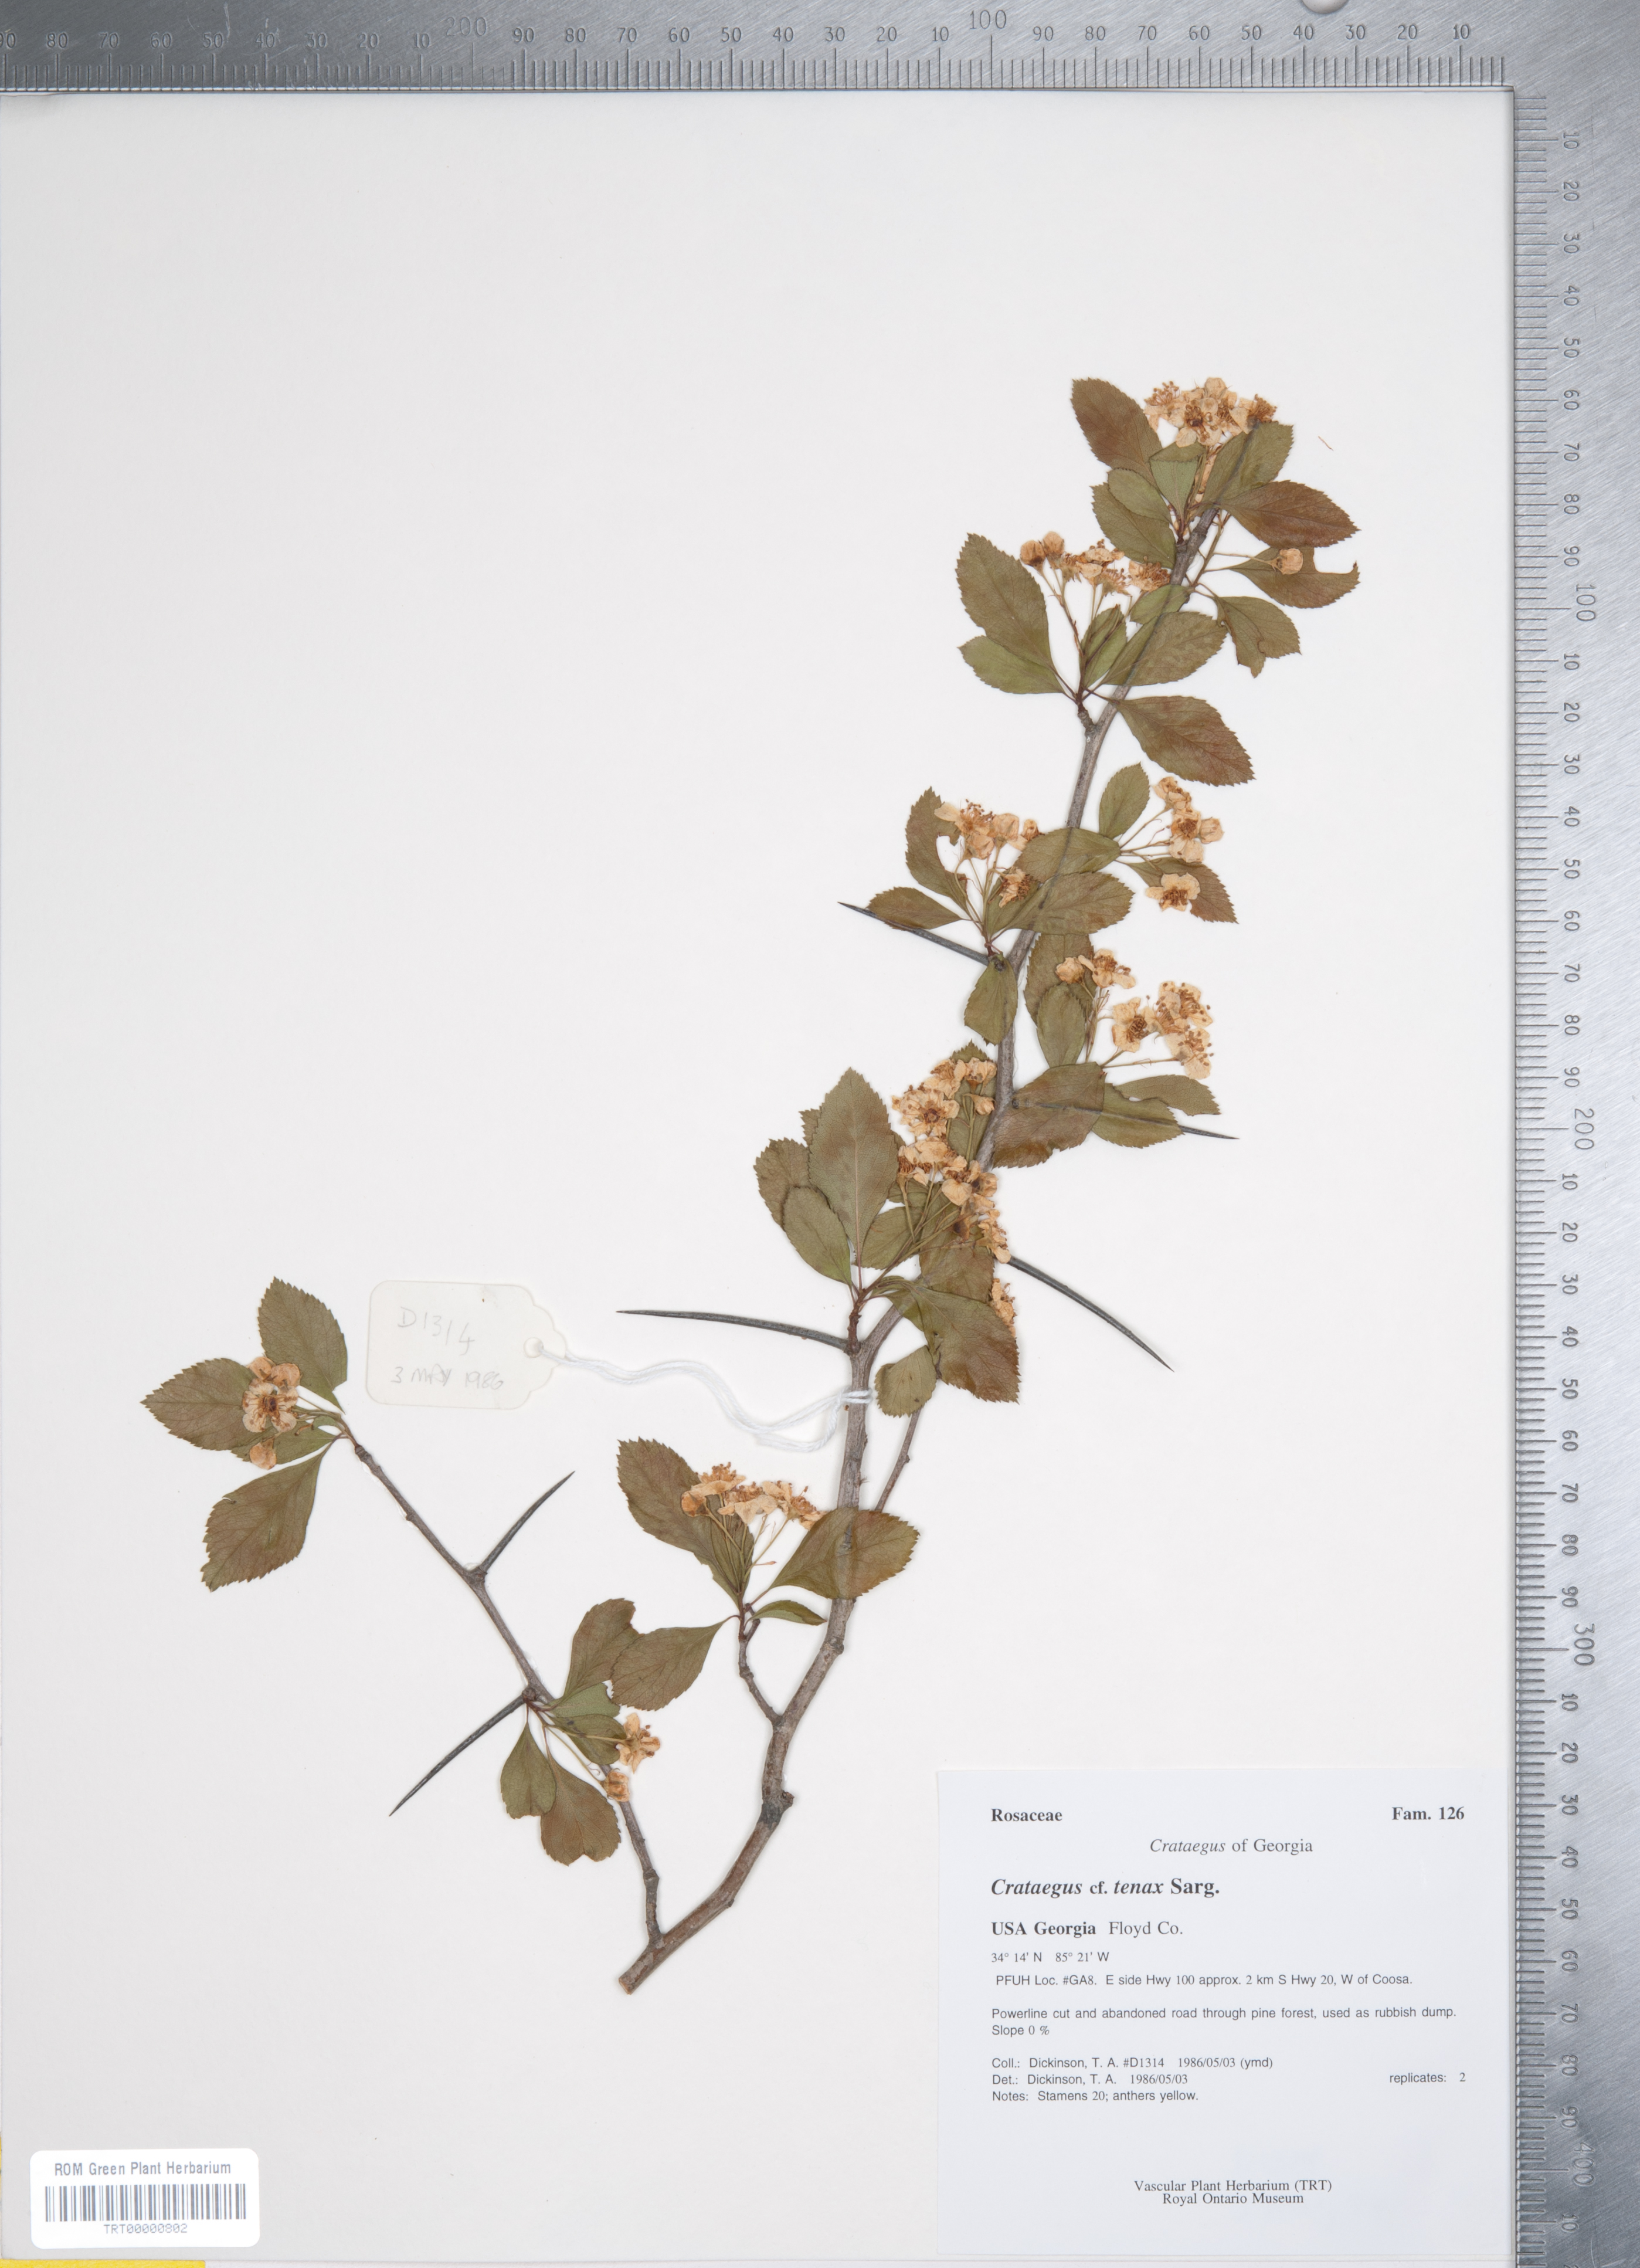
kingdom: Plantae
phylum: Tracheophyta
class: Magnoliopsida
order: Rosales
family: Rosaceae
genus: Crataegus
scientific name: Crataegus crus-galli
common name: Cockspurthorn
